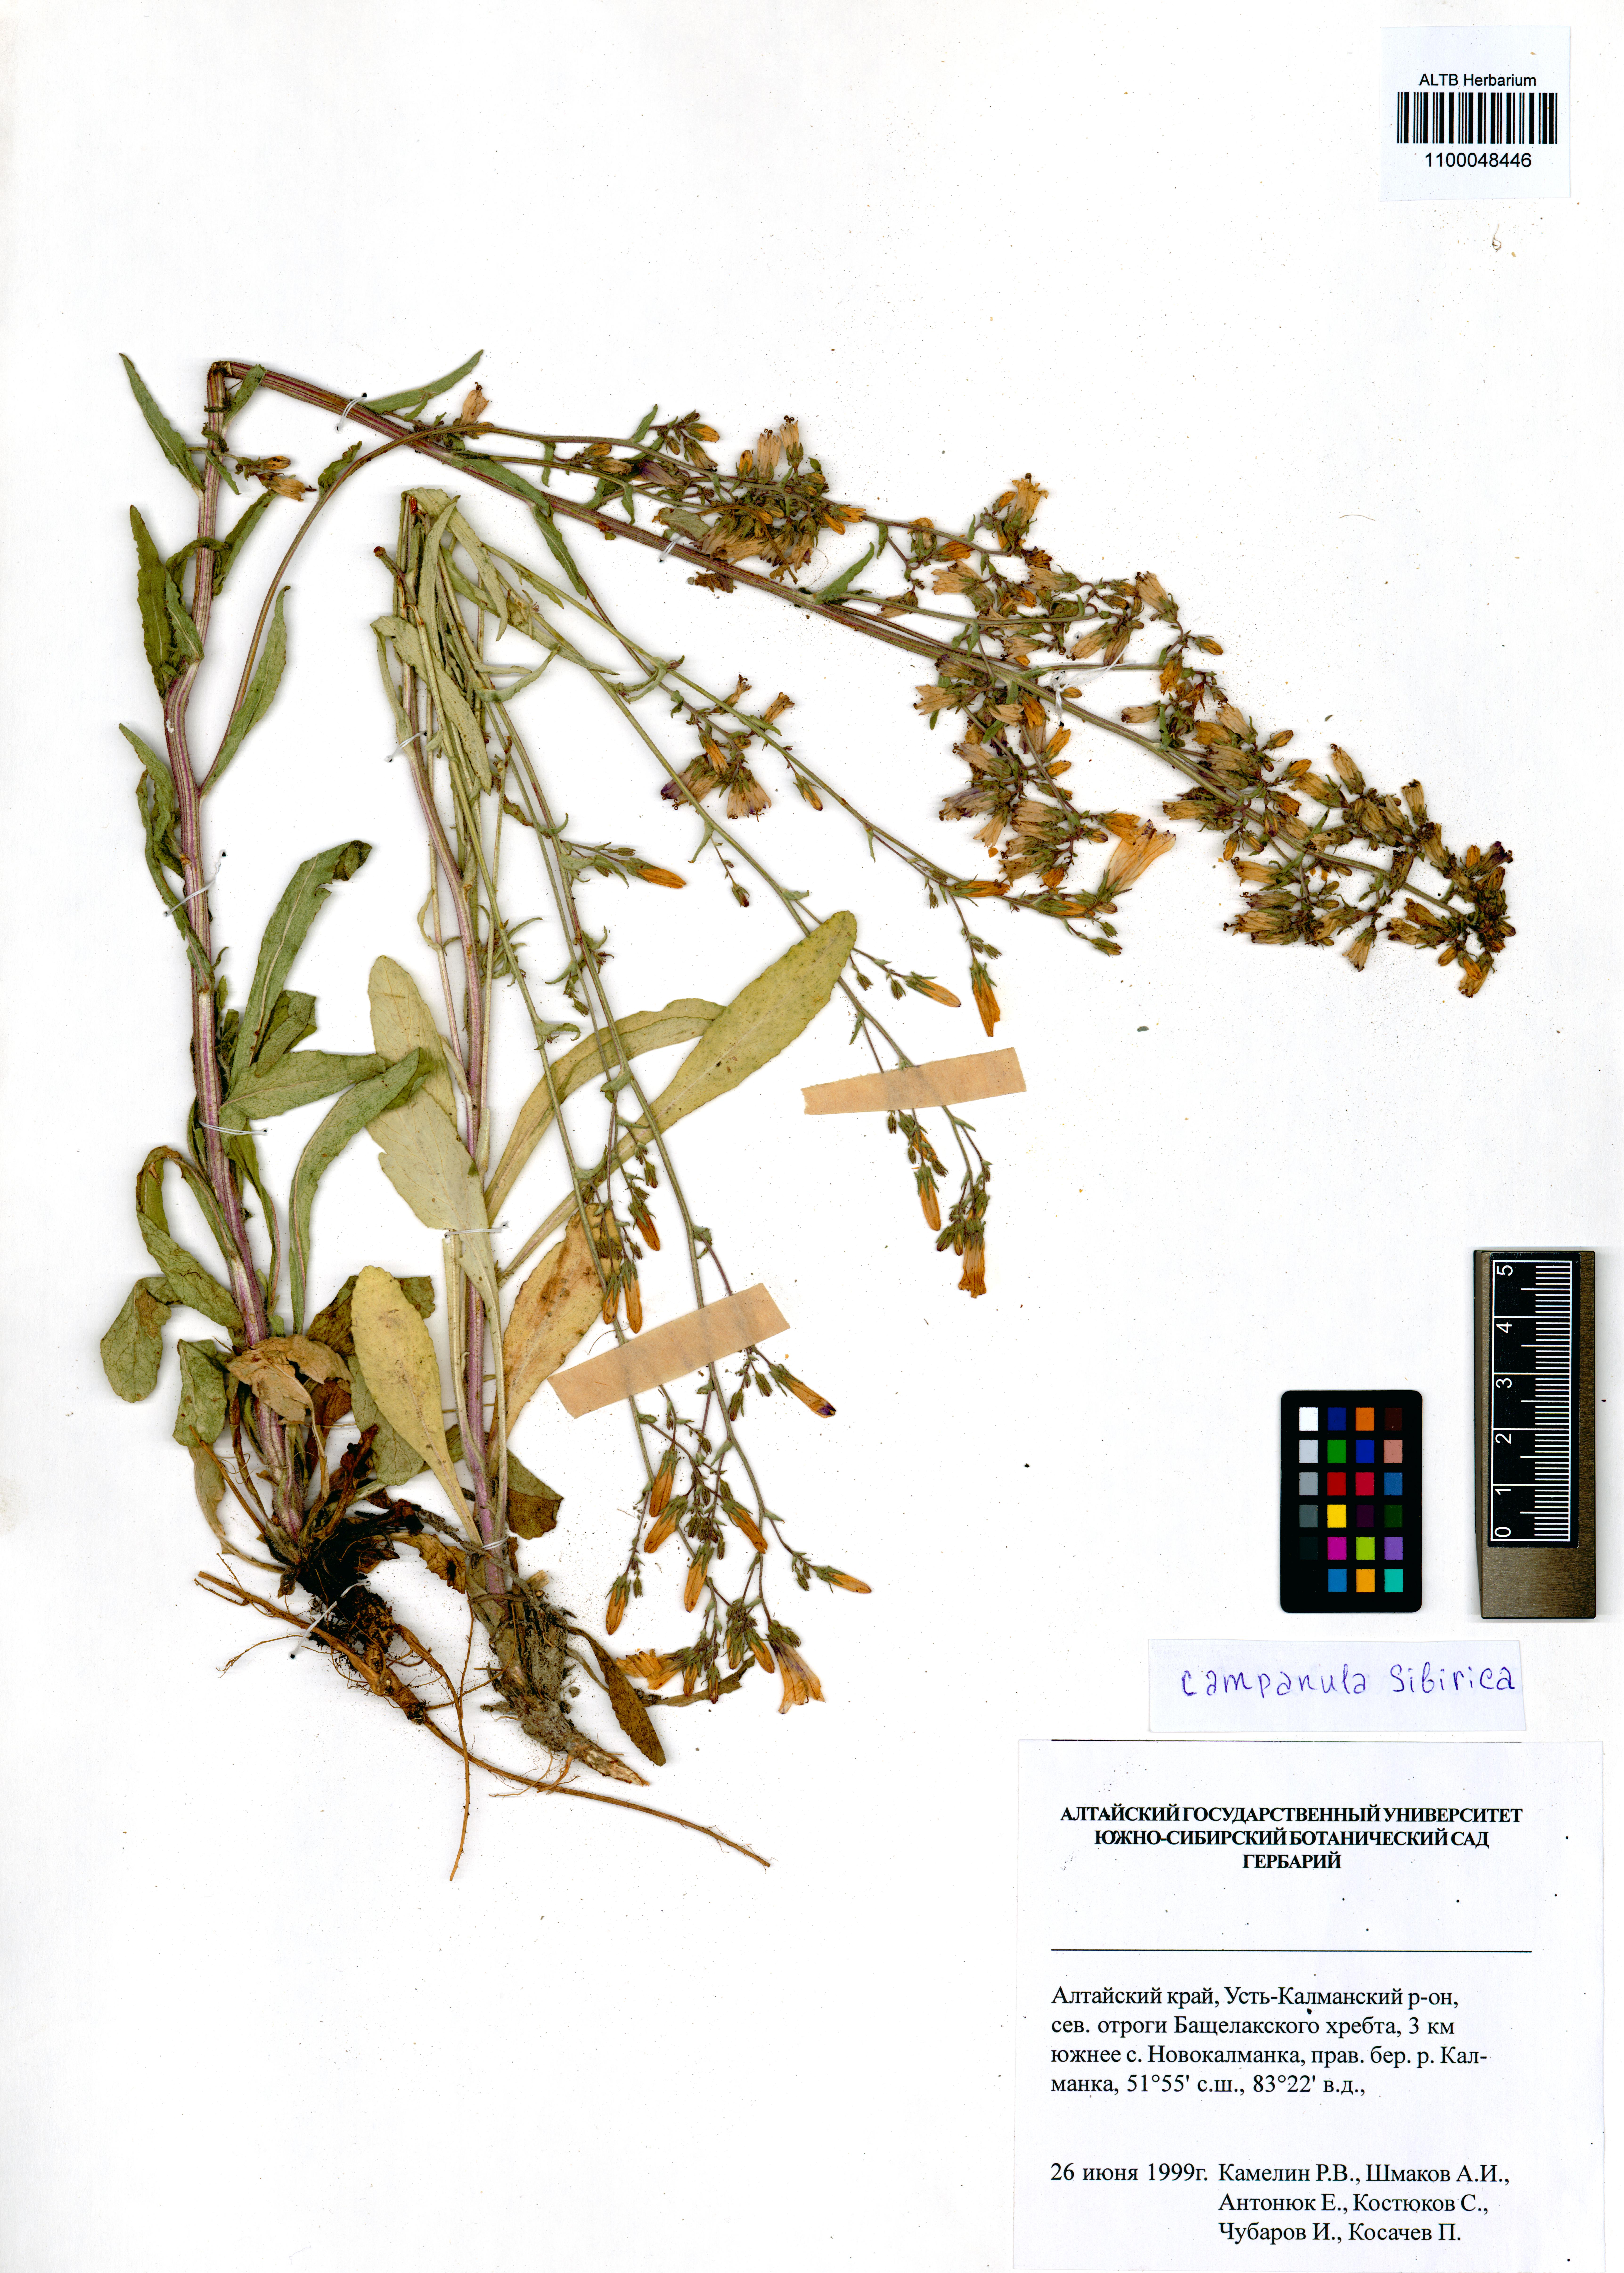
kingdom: Plantae
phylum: Tracheophyta
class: Magnoliopsida
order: Asterales
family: Campanulaceae
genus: Campanula
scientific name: Campanula sibirica
